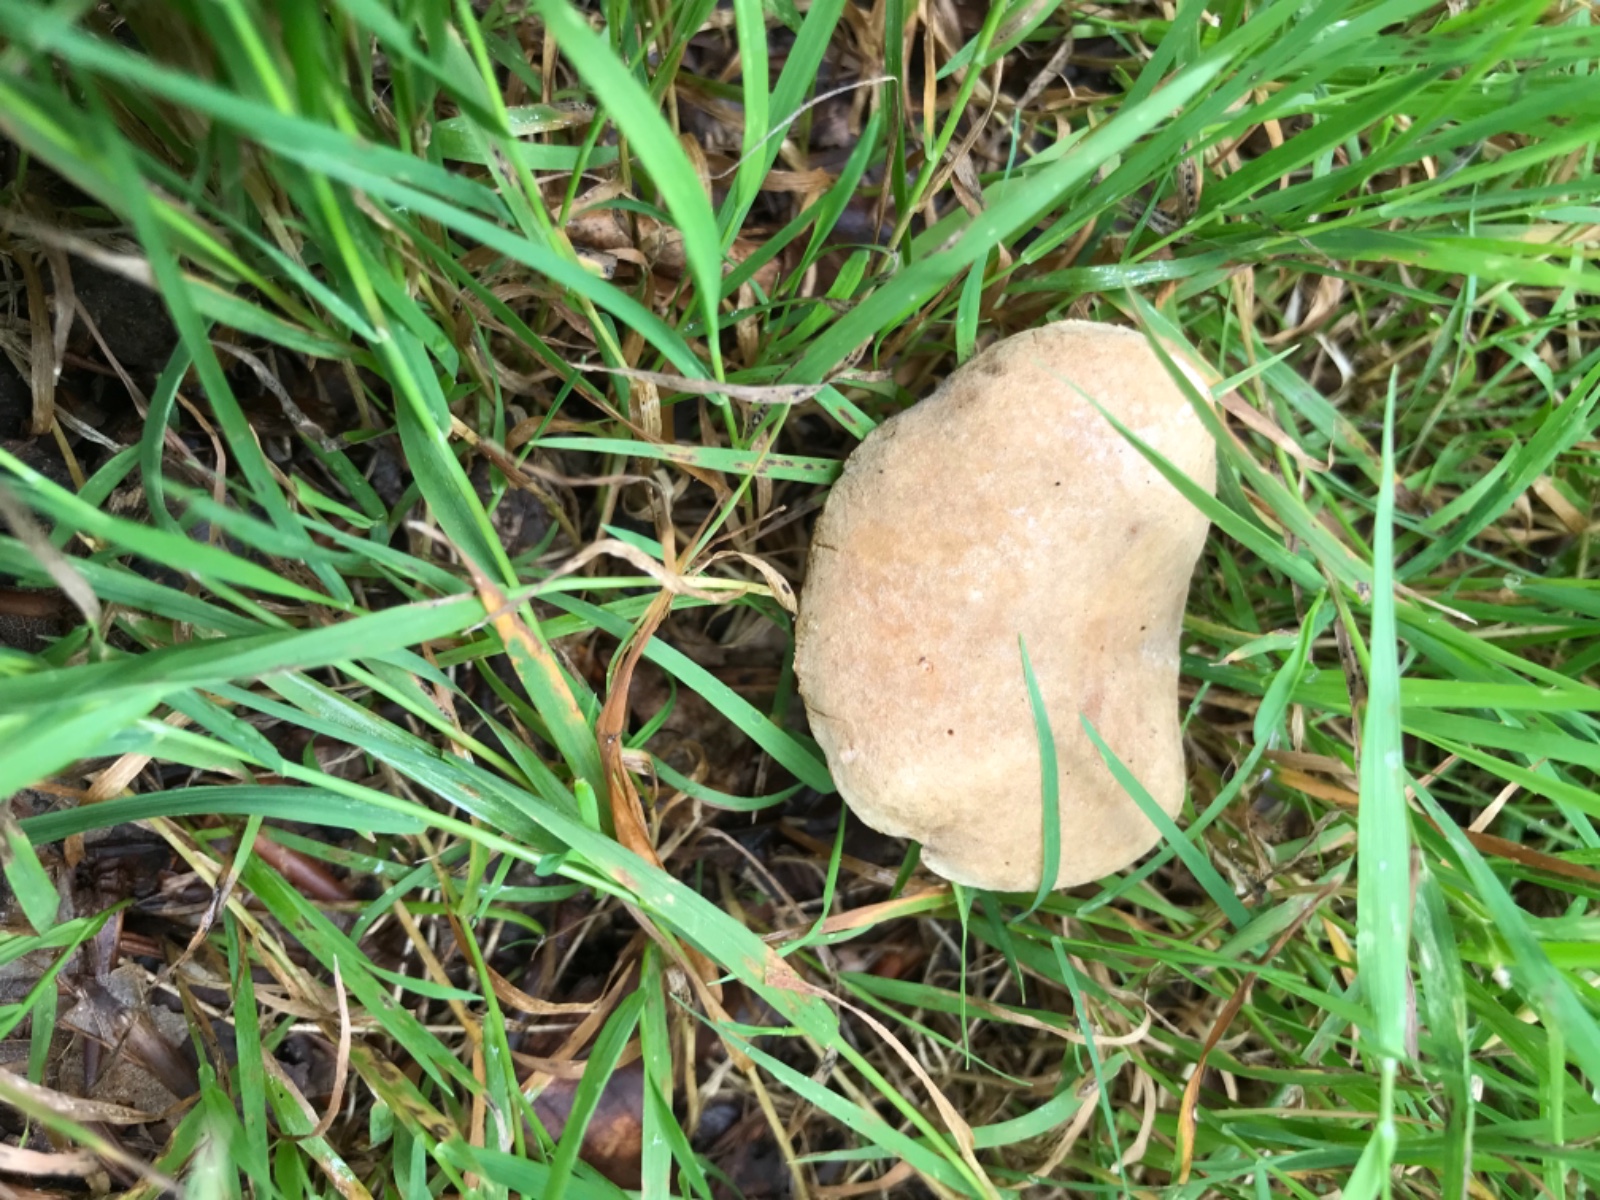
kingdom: Fungi
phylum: Basidiomycota
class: Agaricomycetes
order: Boletales
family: Boletaceae
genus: Hortiboletus
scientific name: Hortiboletus engelii
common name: fersken-rørhat
